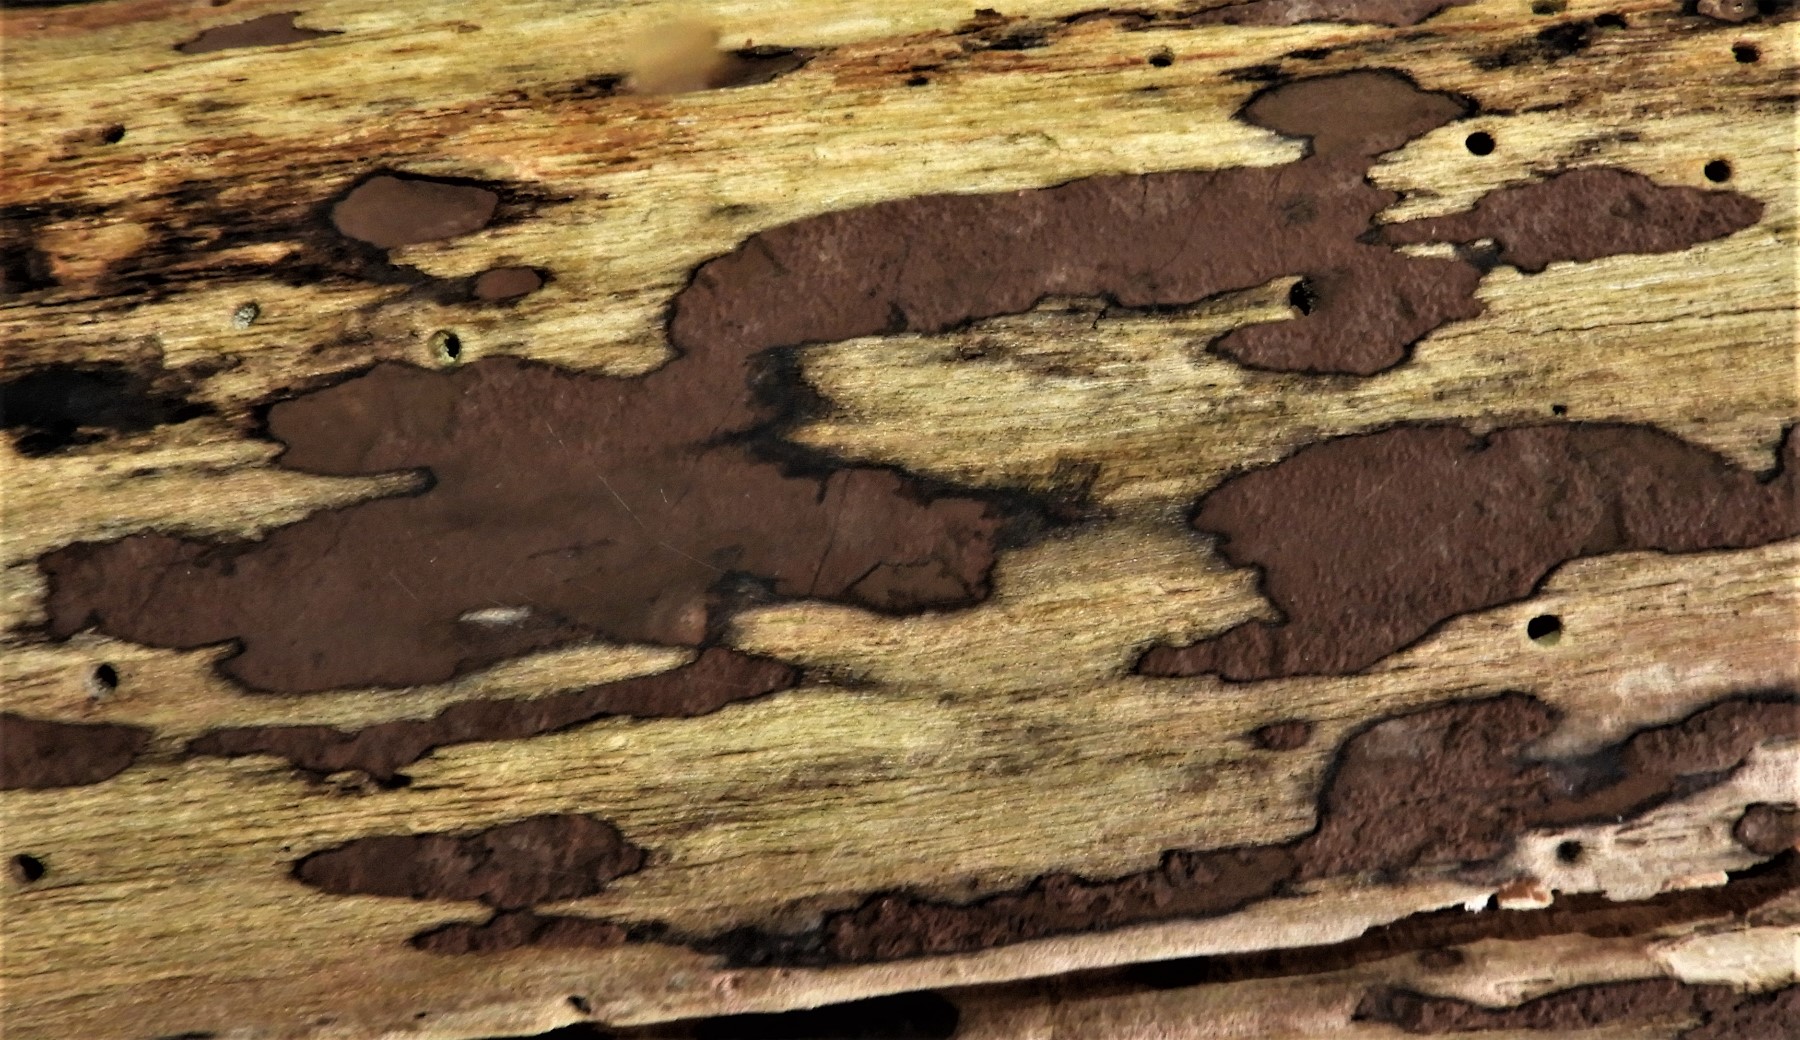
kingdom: Fungi
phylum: Ascomycota
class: Sordariomycetes
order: Xylariales
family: Hypoxylaceae
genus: Hypoxylon
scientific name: Hypoxylon petriniae
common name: nedsænket kulbær
